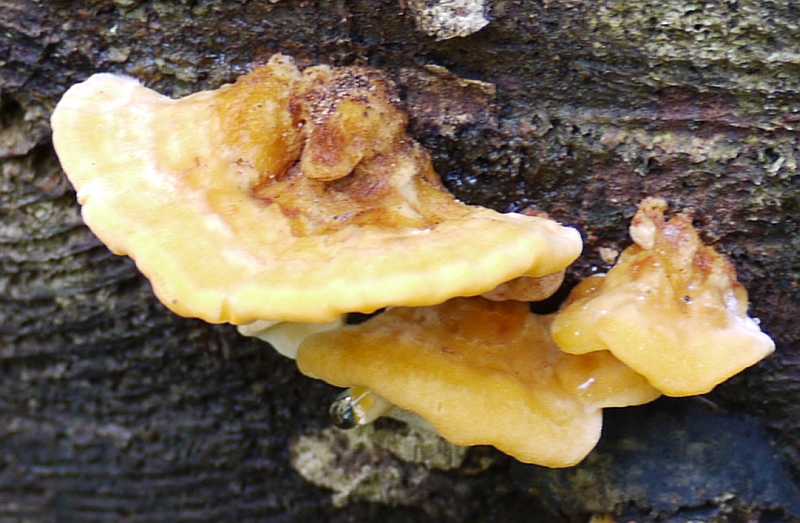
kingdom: Fungi
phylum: Basidiomycota
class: Agaricomycetes
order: Polyporales
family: Pycnoporellaceae
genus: Pycnoporellus
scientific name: Pycnoporellus fulgens
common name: flammeporesvamp
